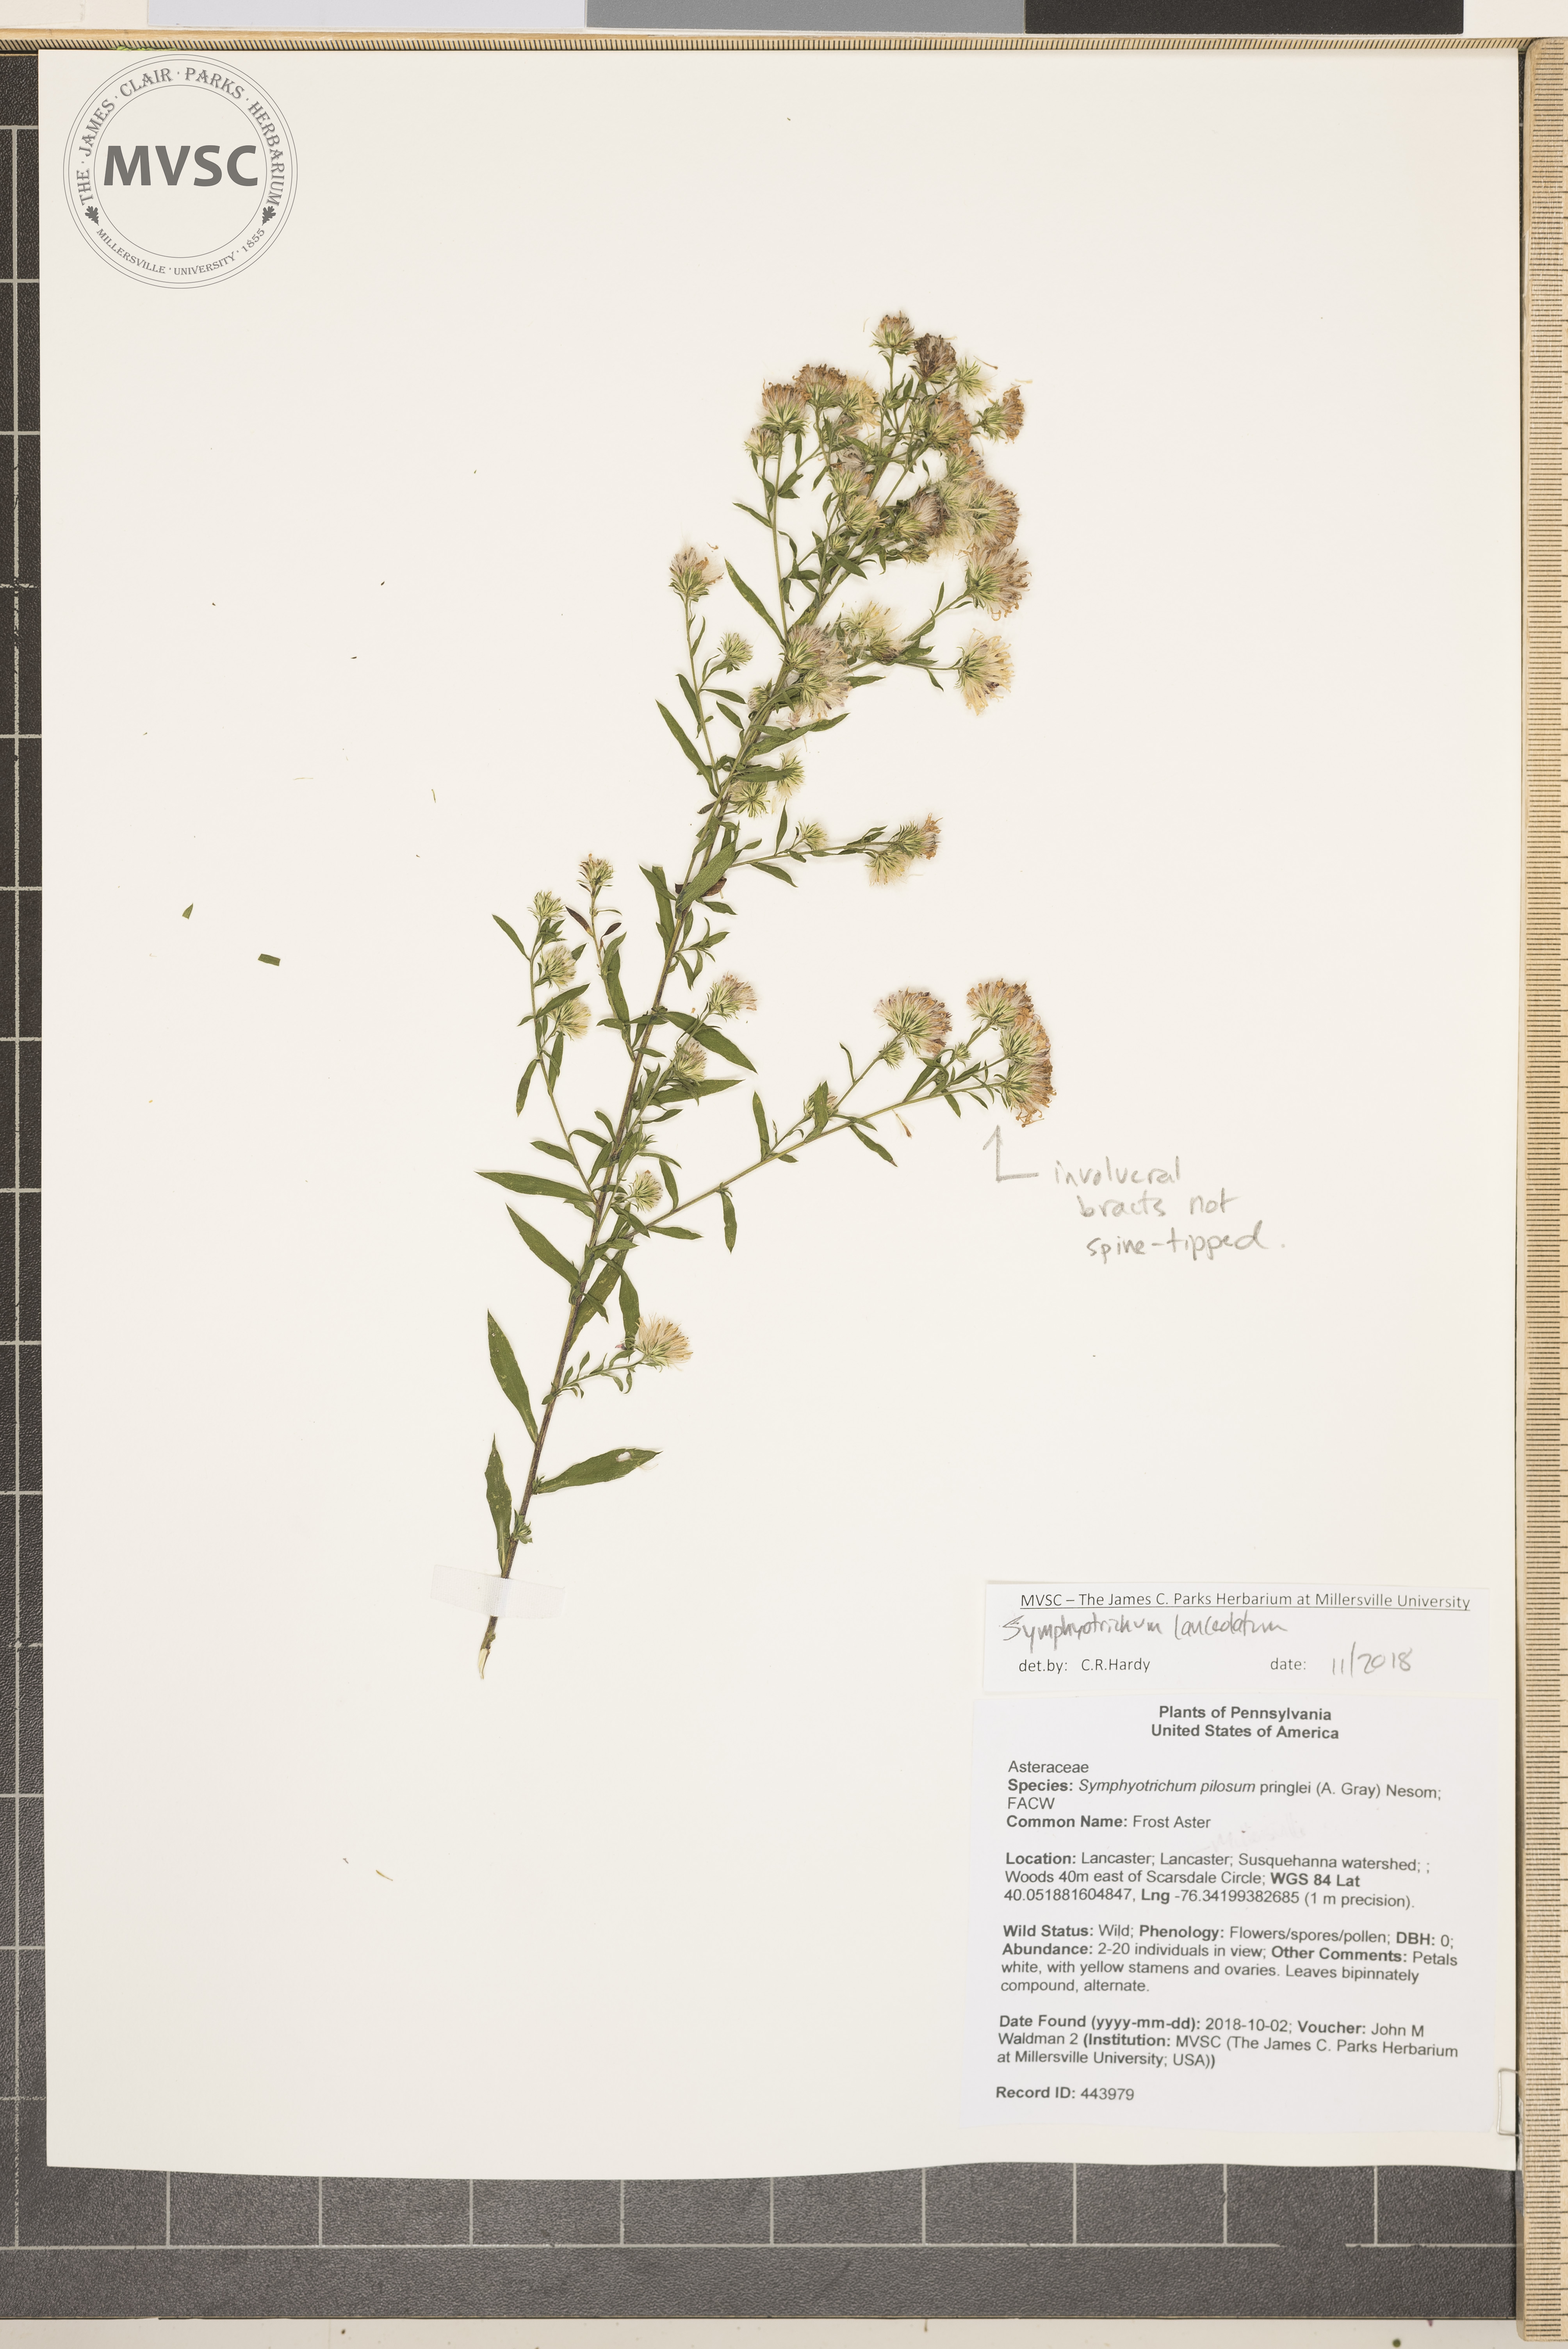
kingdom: Plantae
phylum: Tracheophyta
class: Magnoliopsida
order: Asterales
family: Asteraceae
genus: Symphyotrichum
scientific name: Symphyotrichum lanceolatum
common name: Aster
